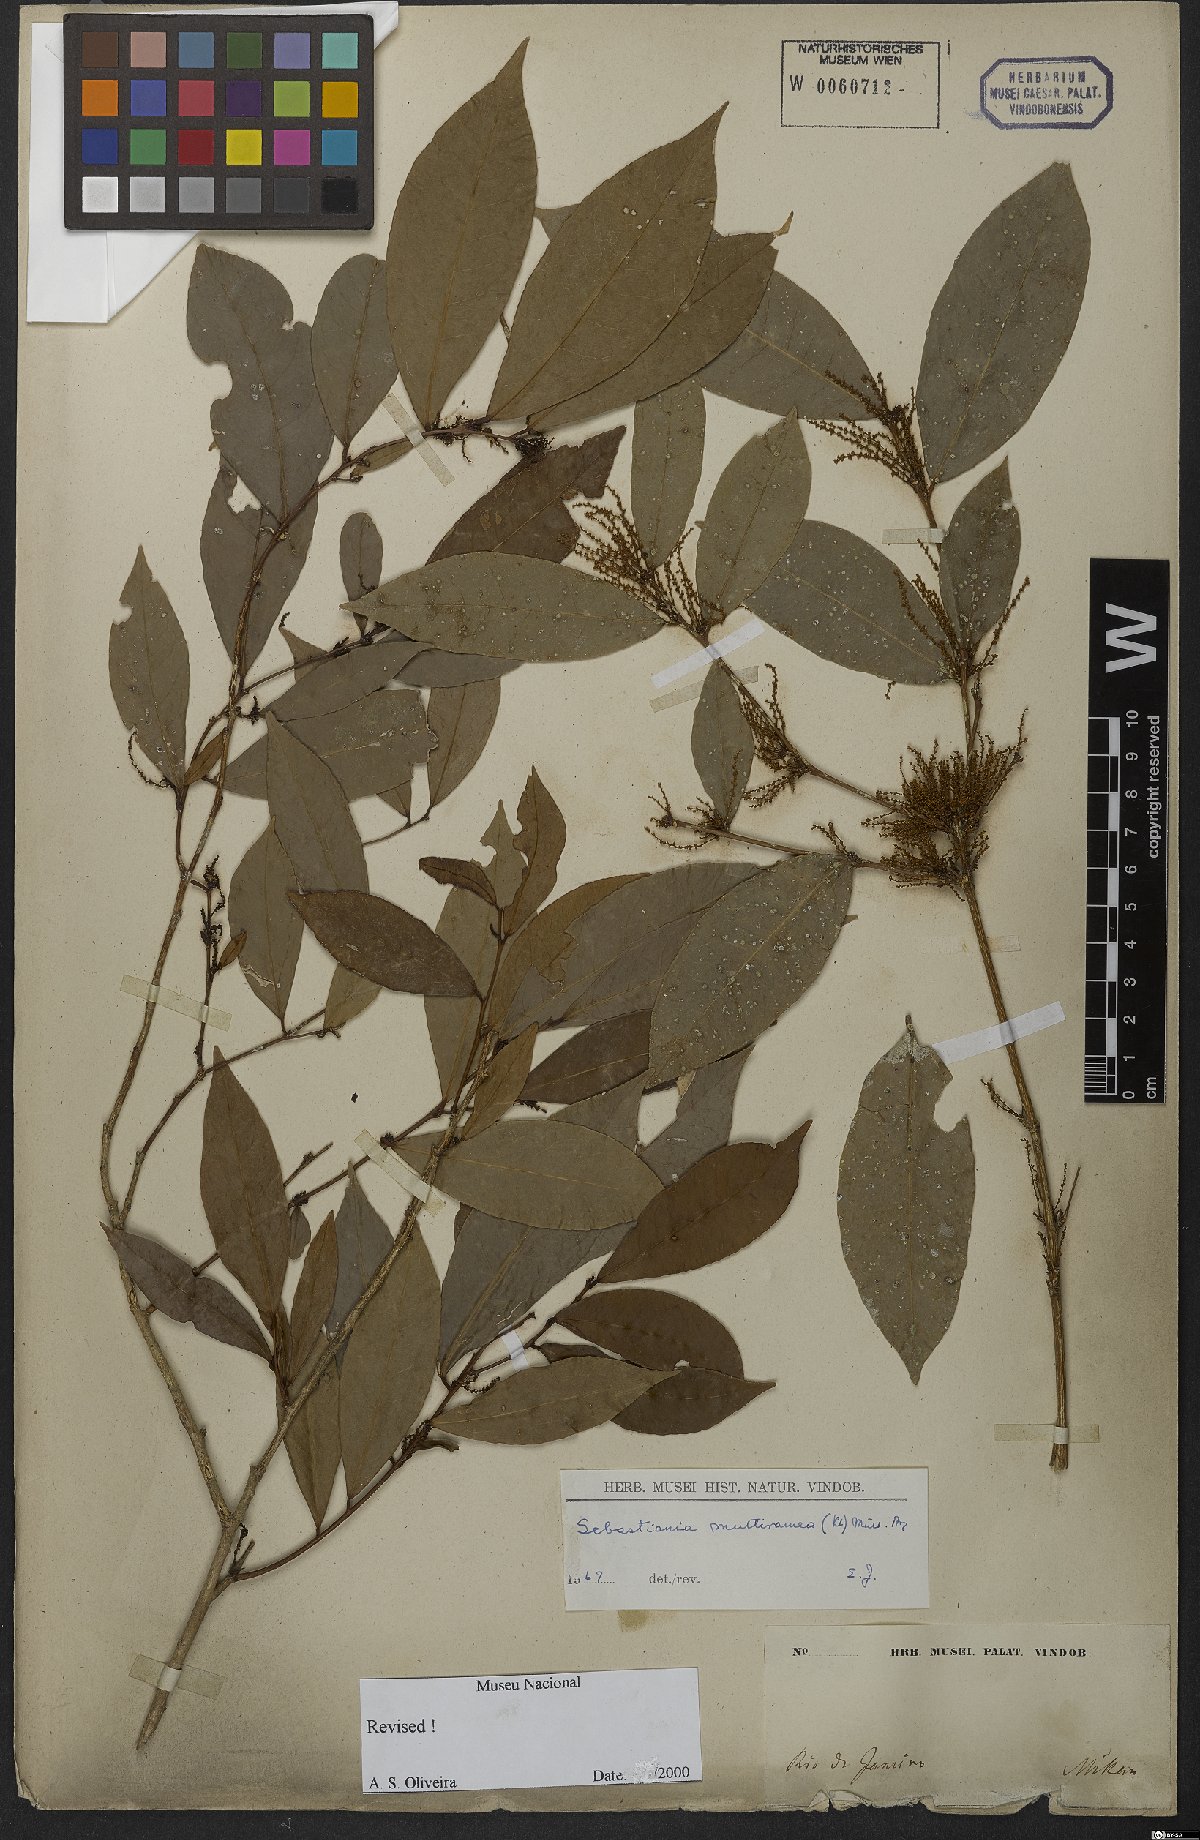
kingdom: Plantae
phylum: Tracheophyta
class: Magnoliopsida
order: Malpighiales
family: Euphorbiaceae
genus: Gymnanthes
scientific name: Gymnanthes glabrata
